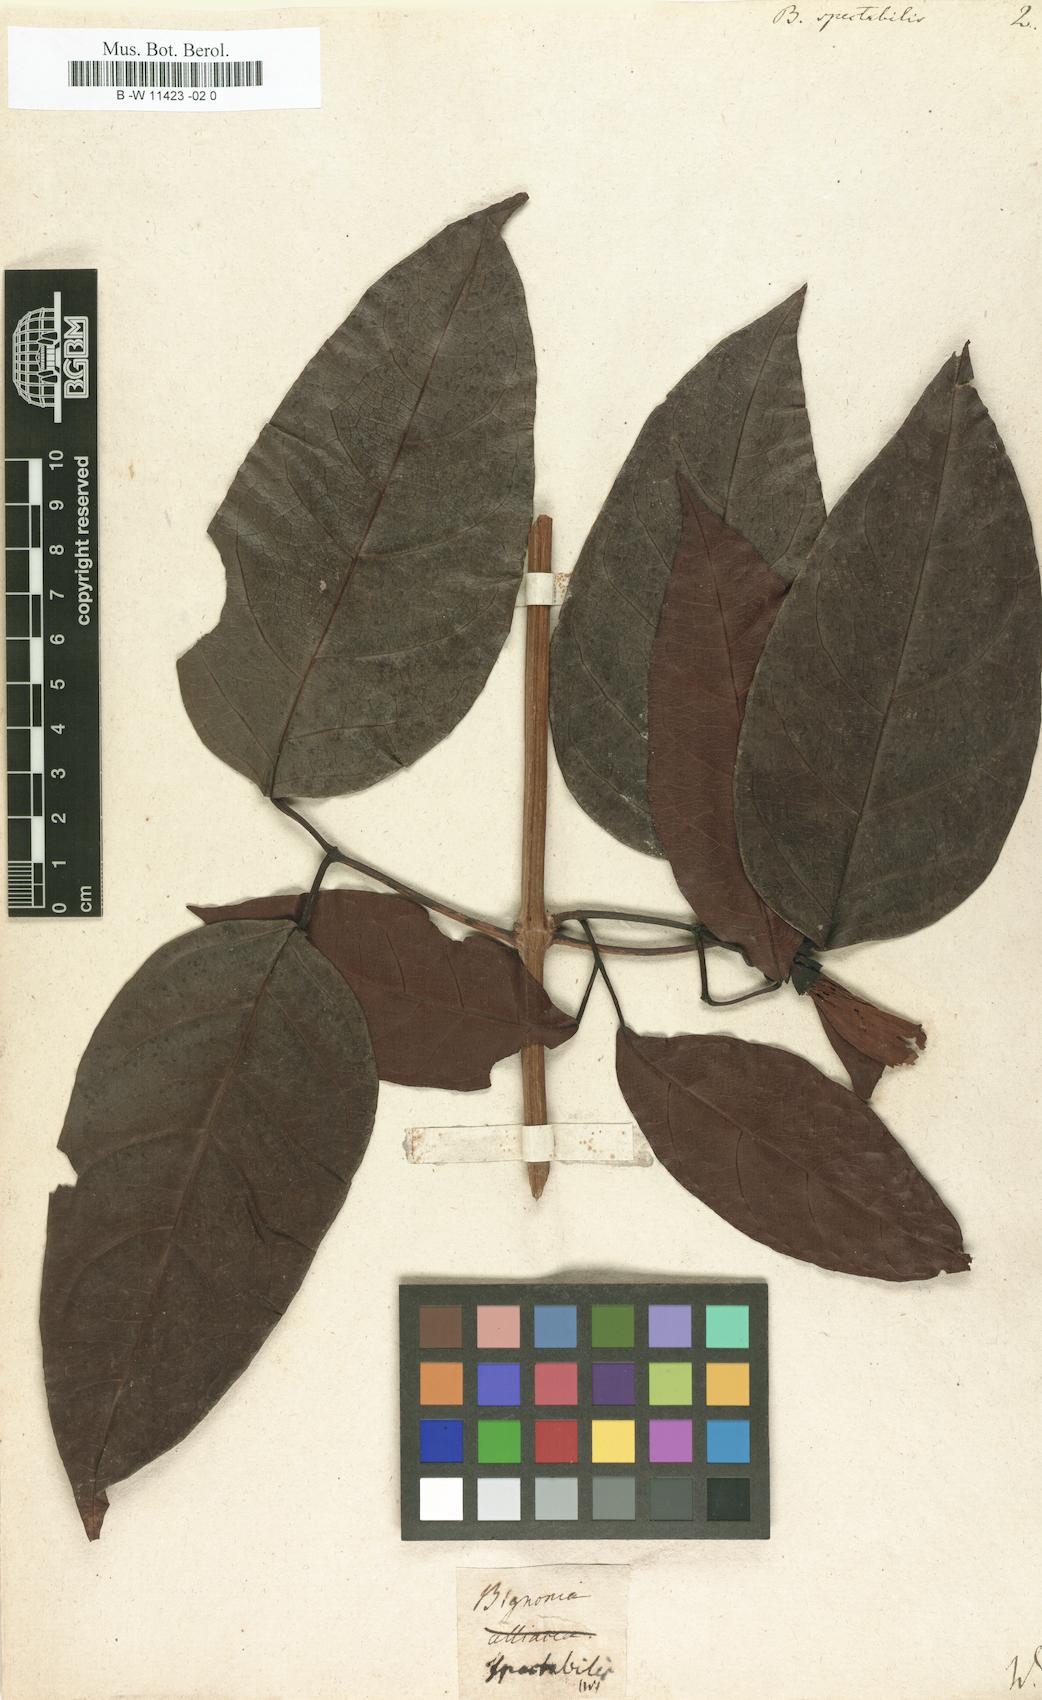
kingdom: Plantae
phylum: Tracheophyta
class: Magnoliopsida
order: Lamiales
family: Bignoniaceae
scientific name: Bignoniaceae
